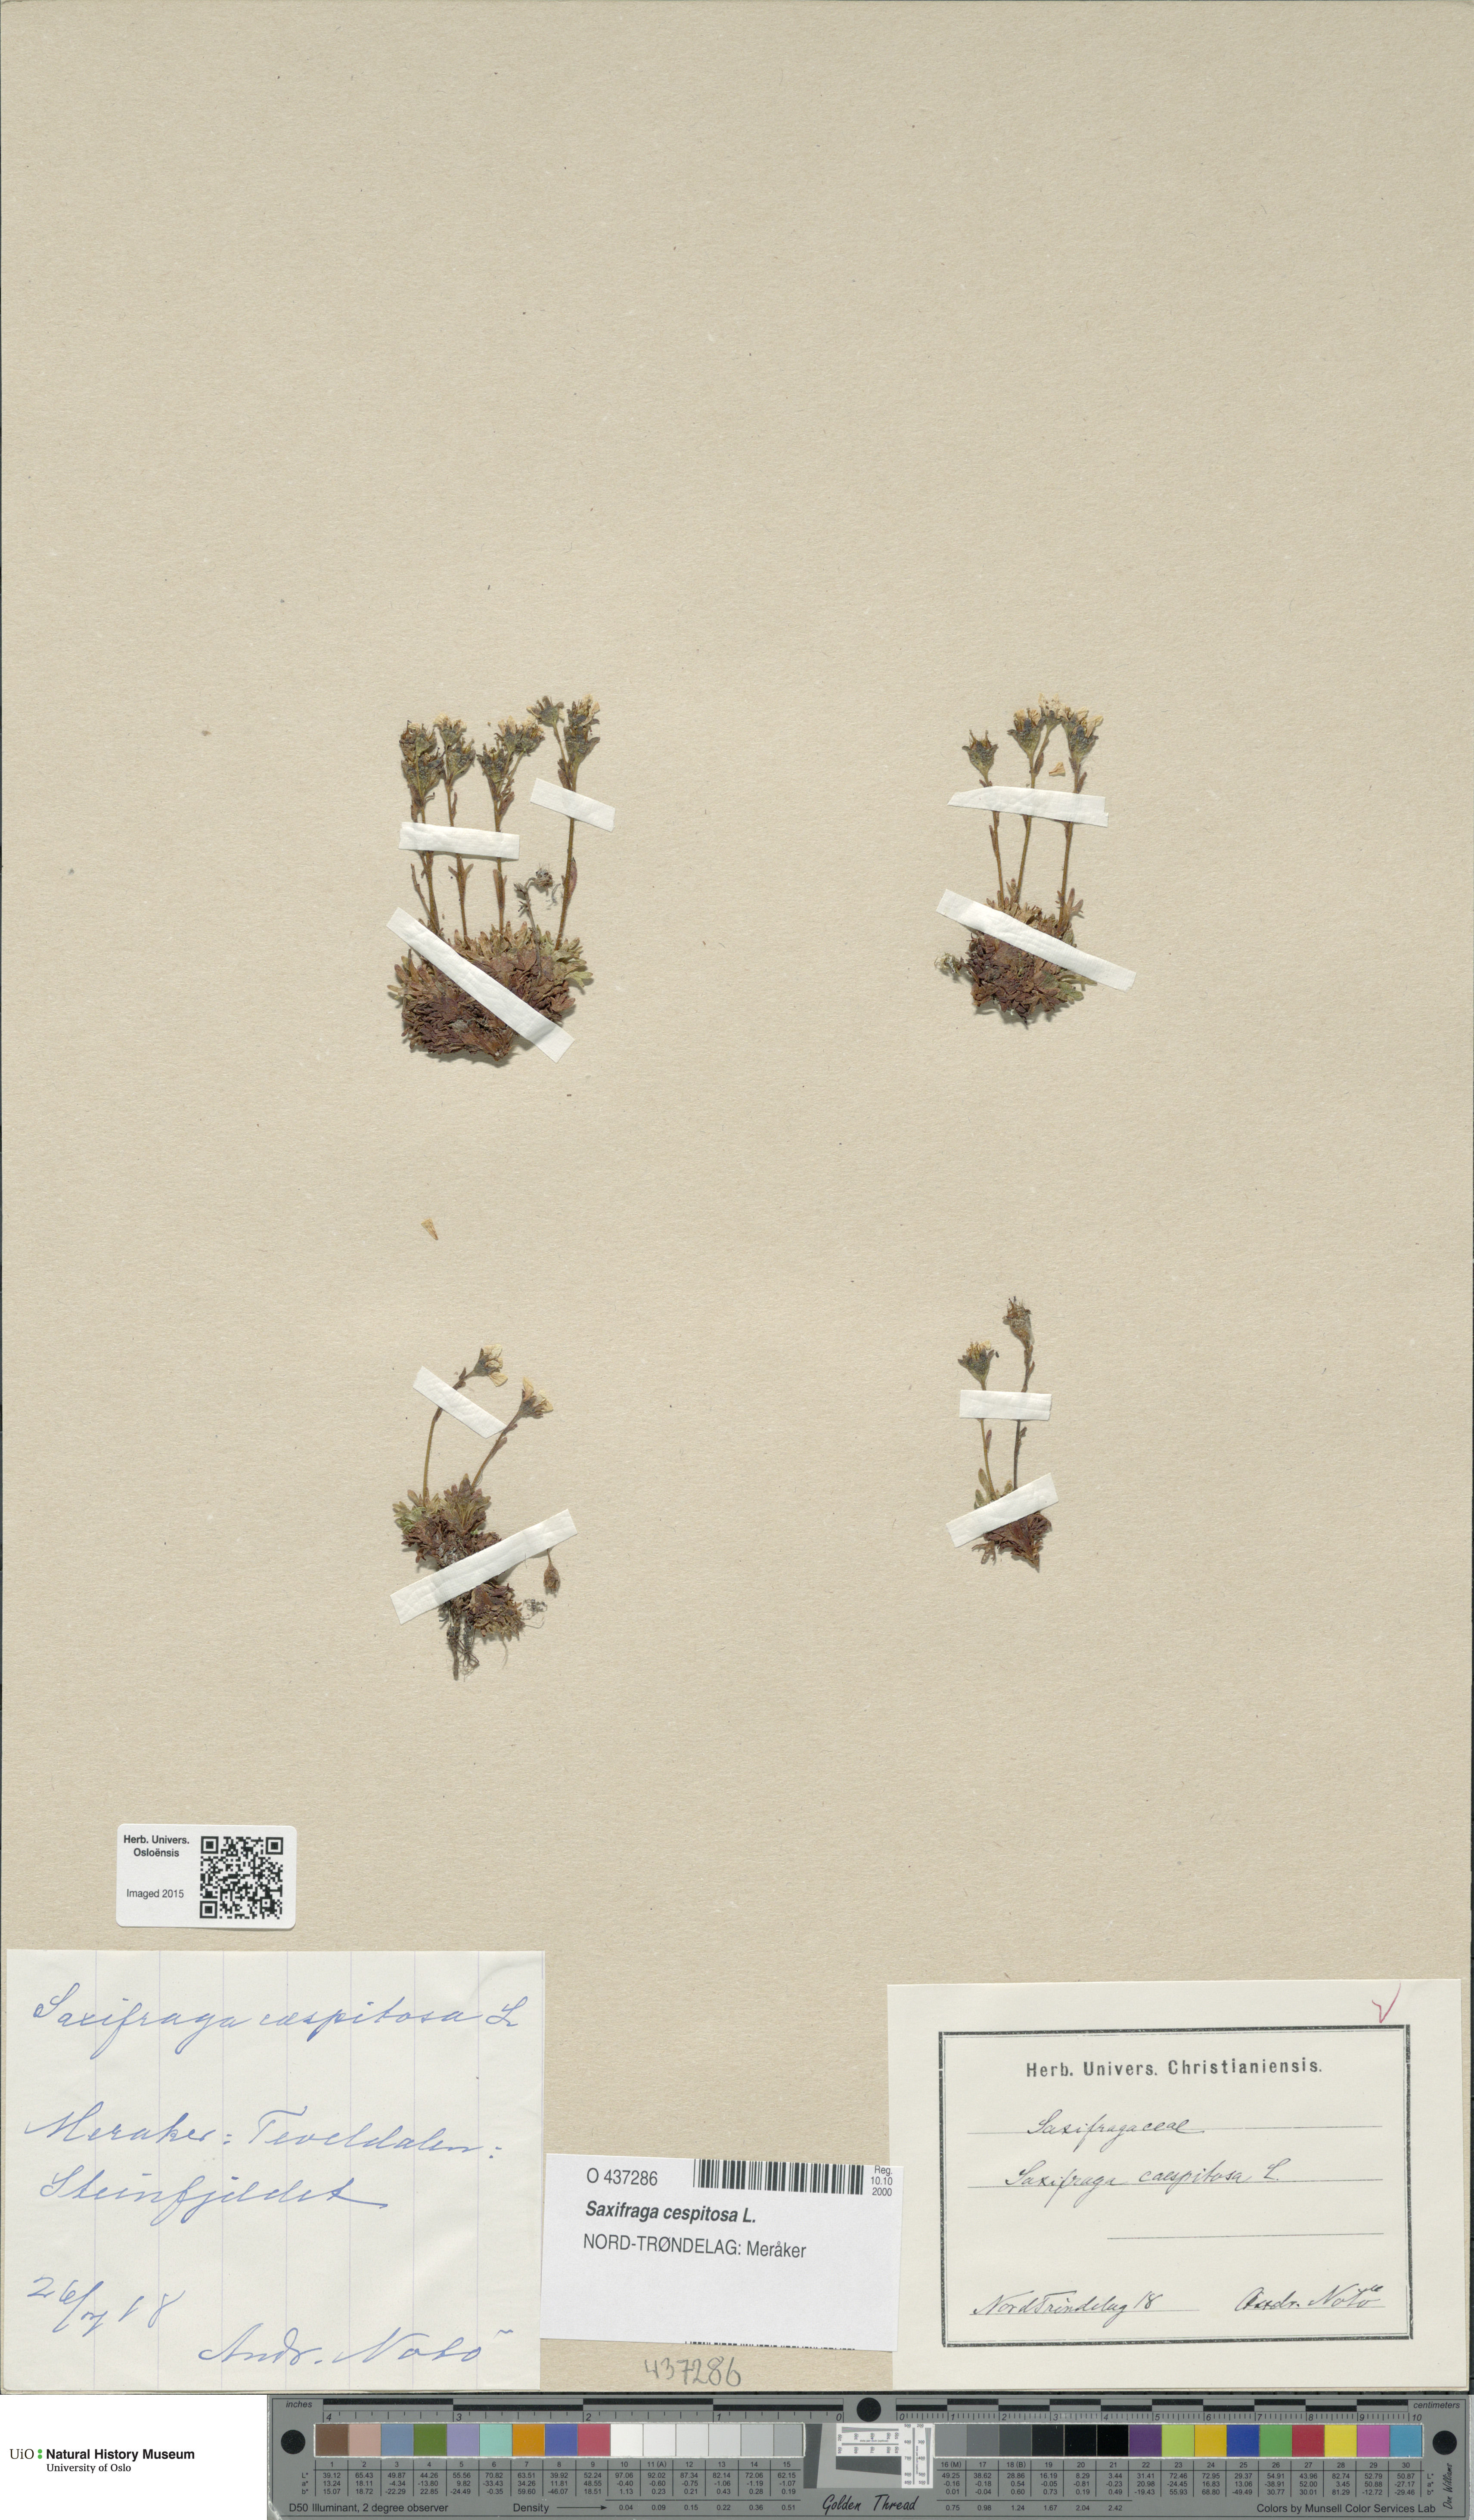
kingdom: Plantae
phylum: Tracheophyta
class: Magnoliopsida
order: Saxifragales
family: Saxifragaceae
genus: Saxifraga
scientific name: Saxifraga cespitosa
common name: Tufted saxifrage
